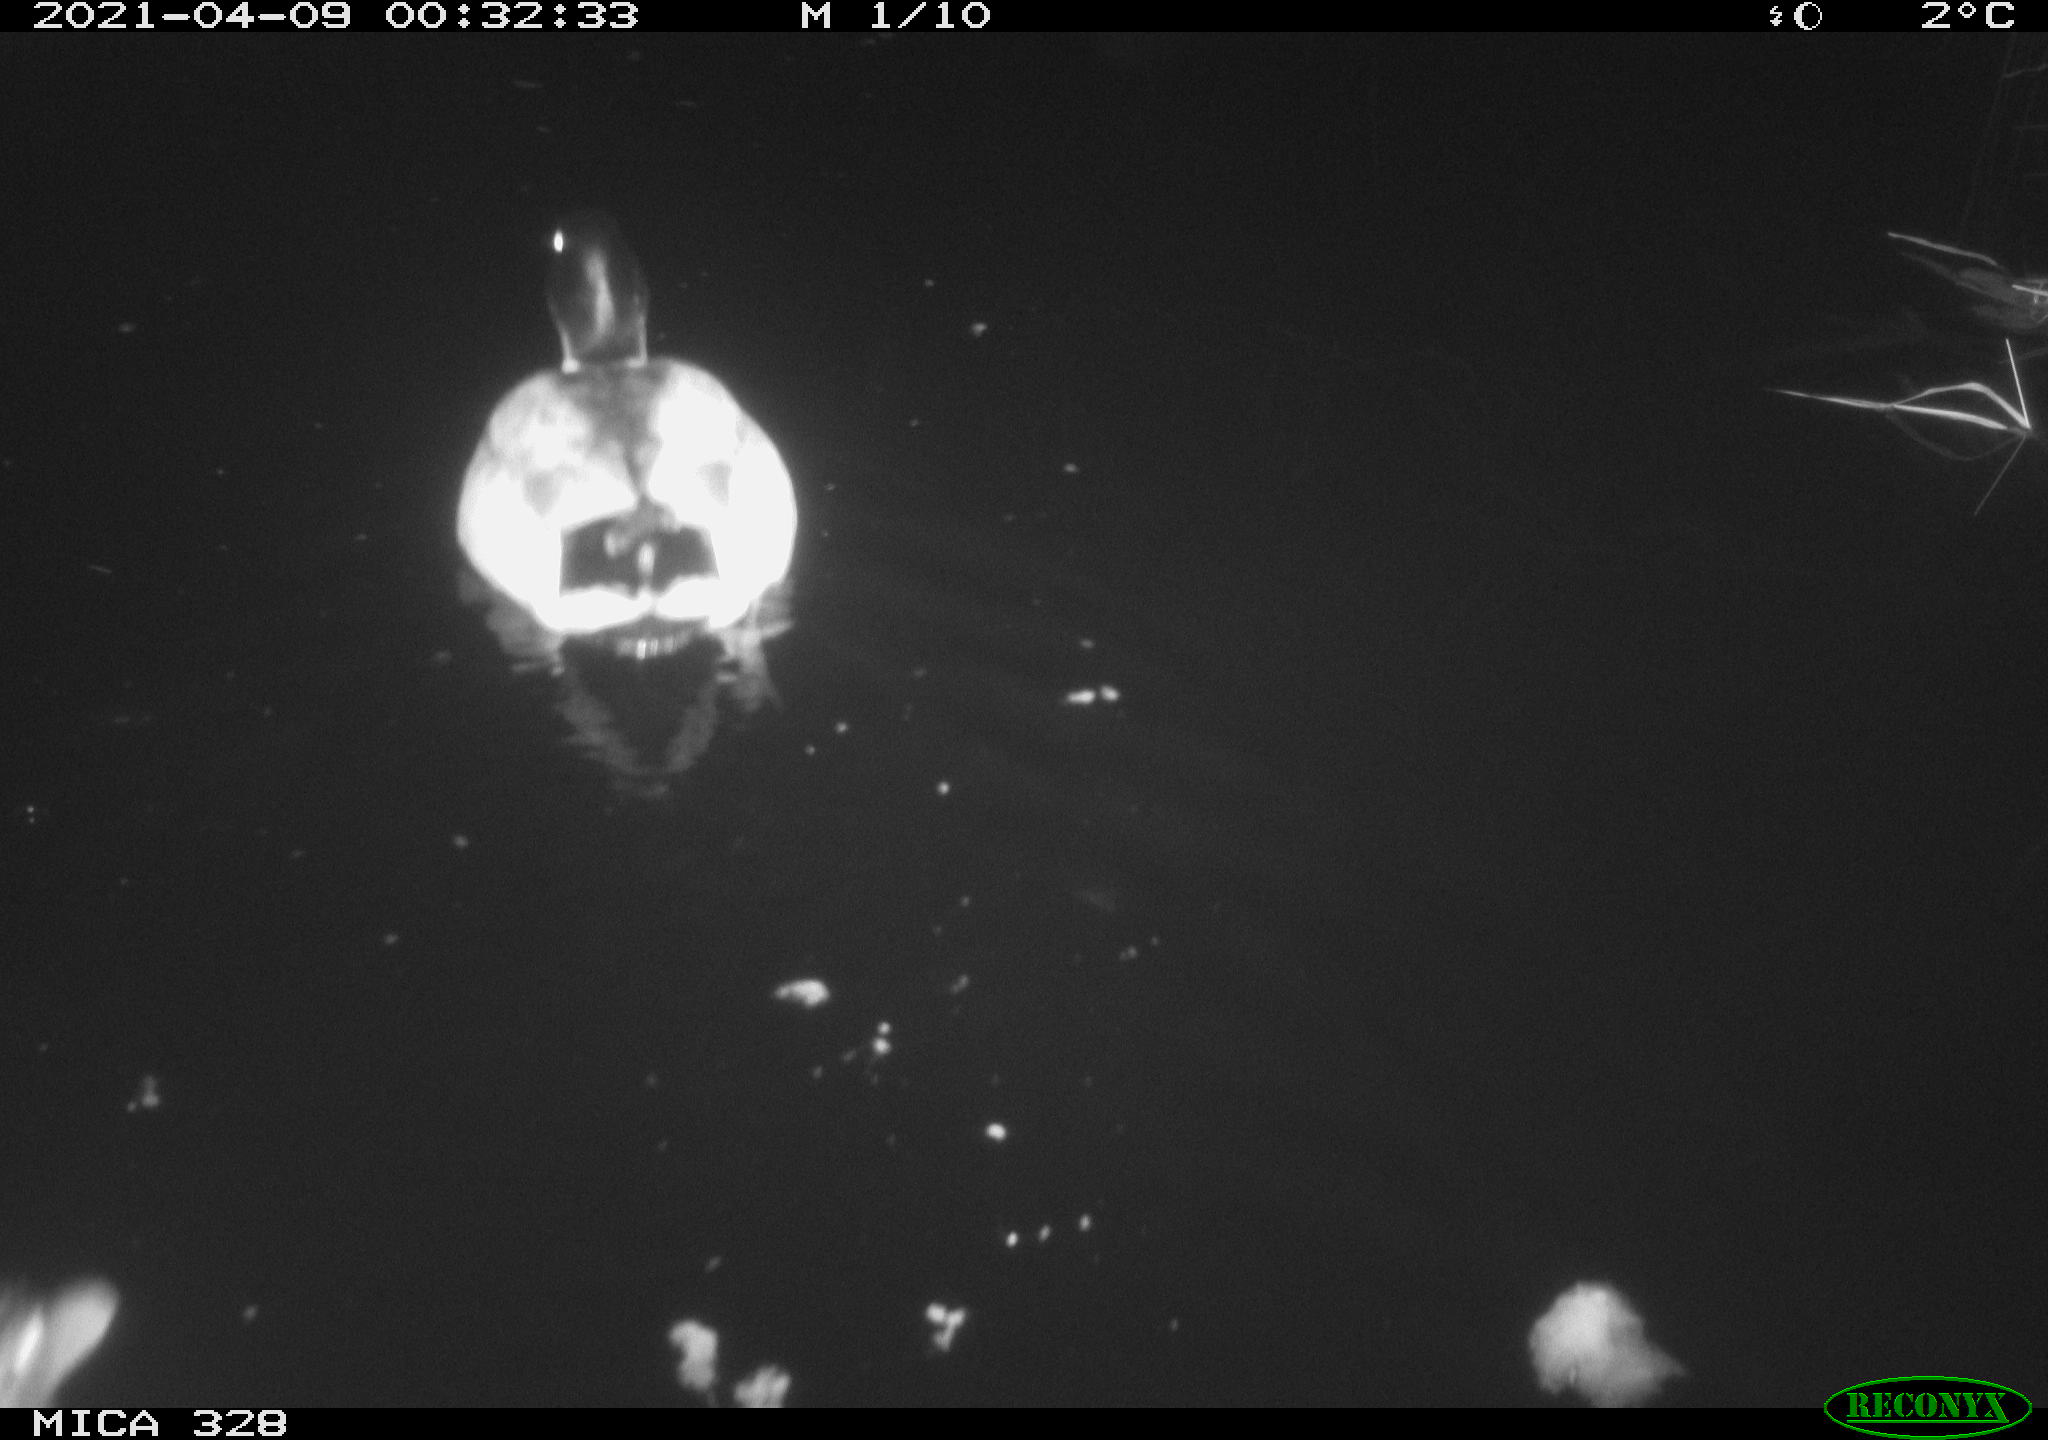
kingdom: Animalia
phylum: Chordata
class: Aves
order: Anseriformes
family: Anatidae
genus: Anas
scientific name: Anas platyrhynchos
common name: Mallard
